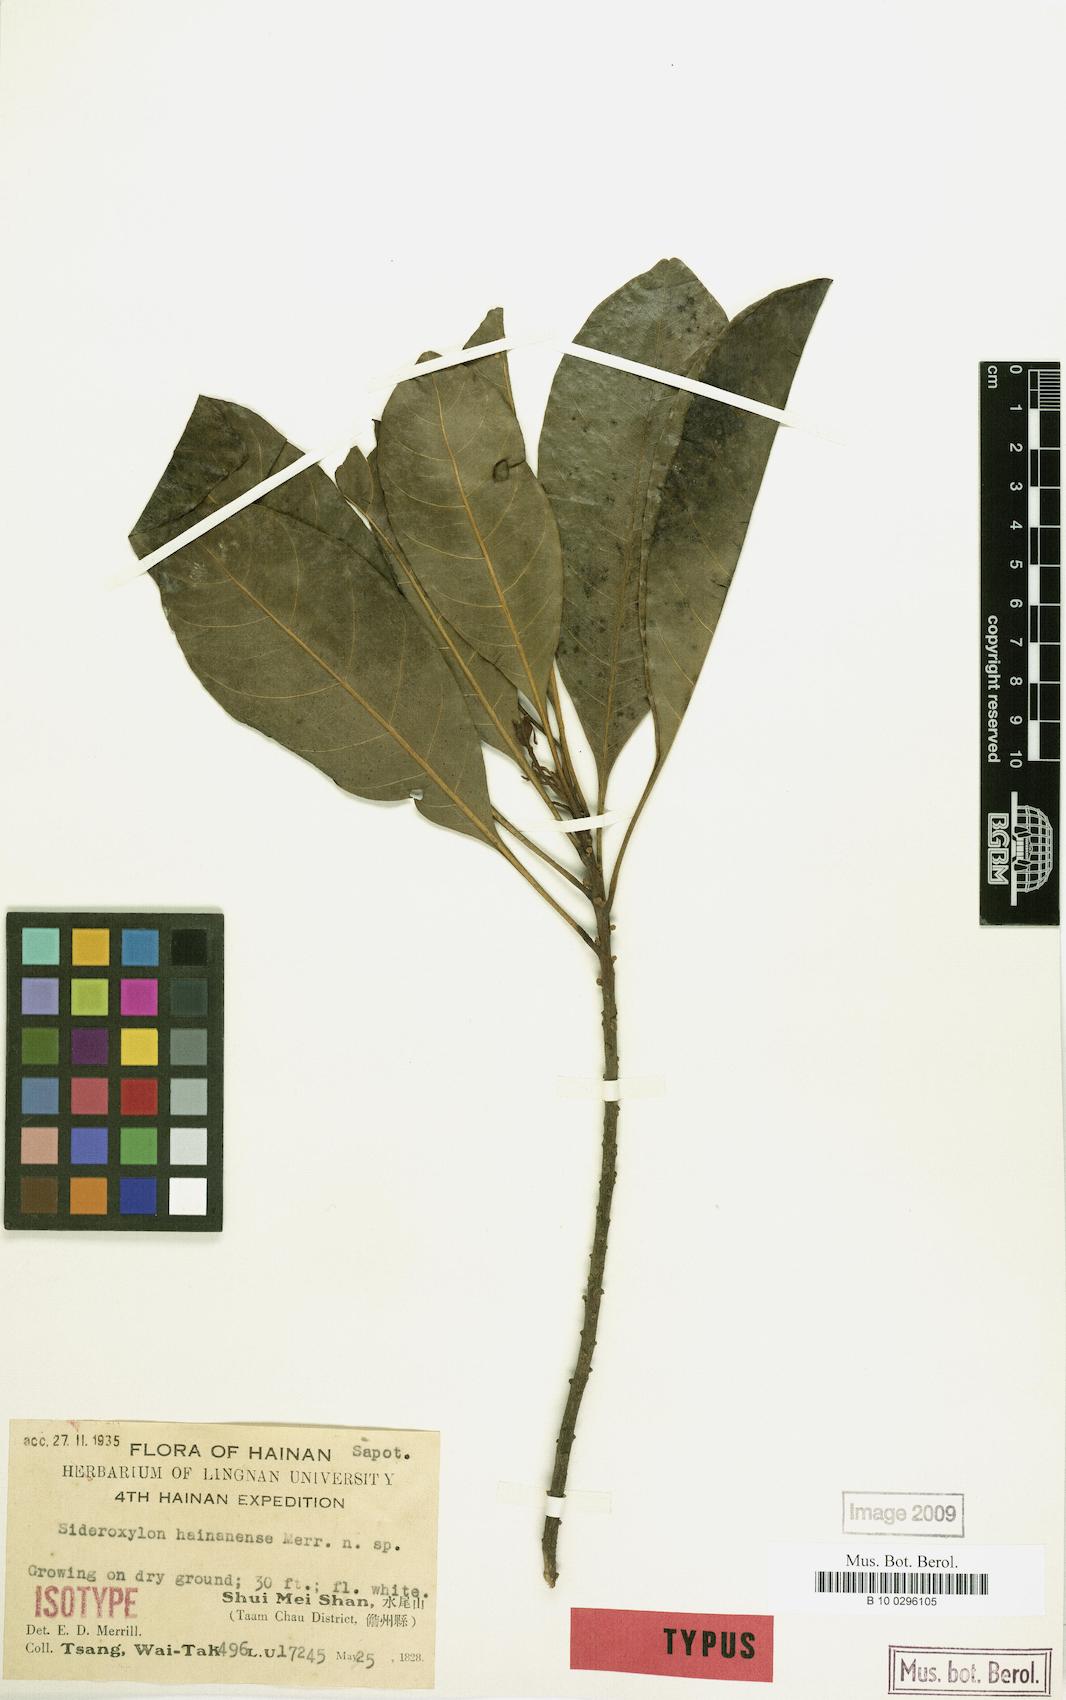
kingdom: Plantae
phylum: Tracheophyta
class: Magnoliopsida
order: Ericales
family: Sapotaceae
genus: Planchonella
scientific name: Planchonella annamensis
